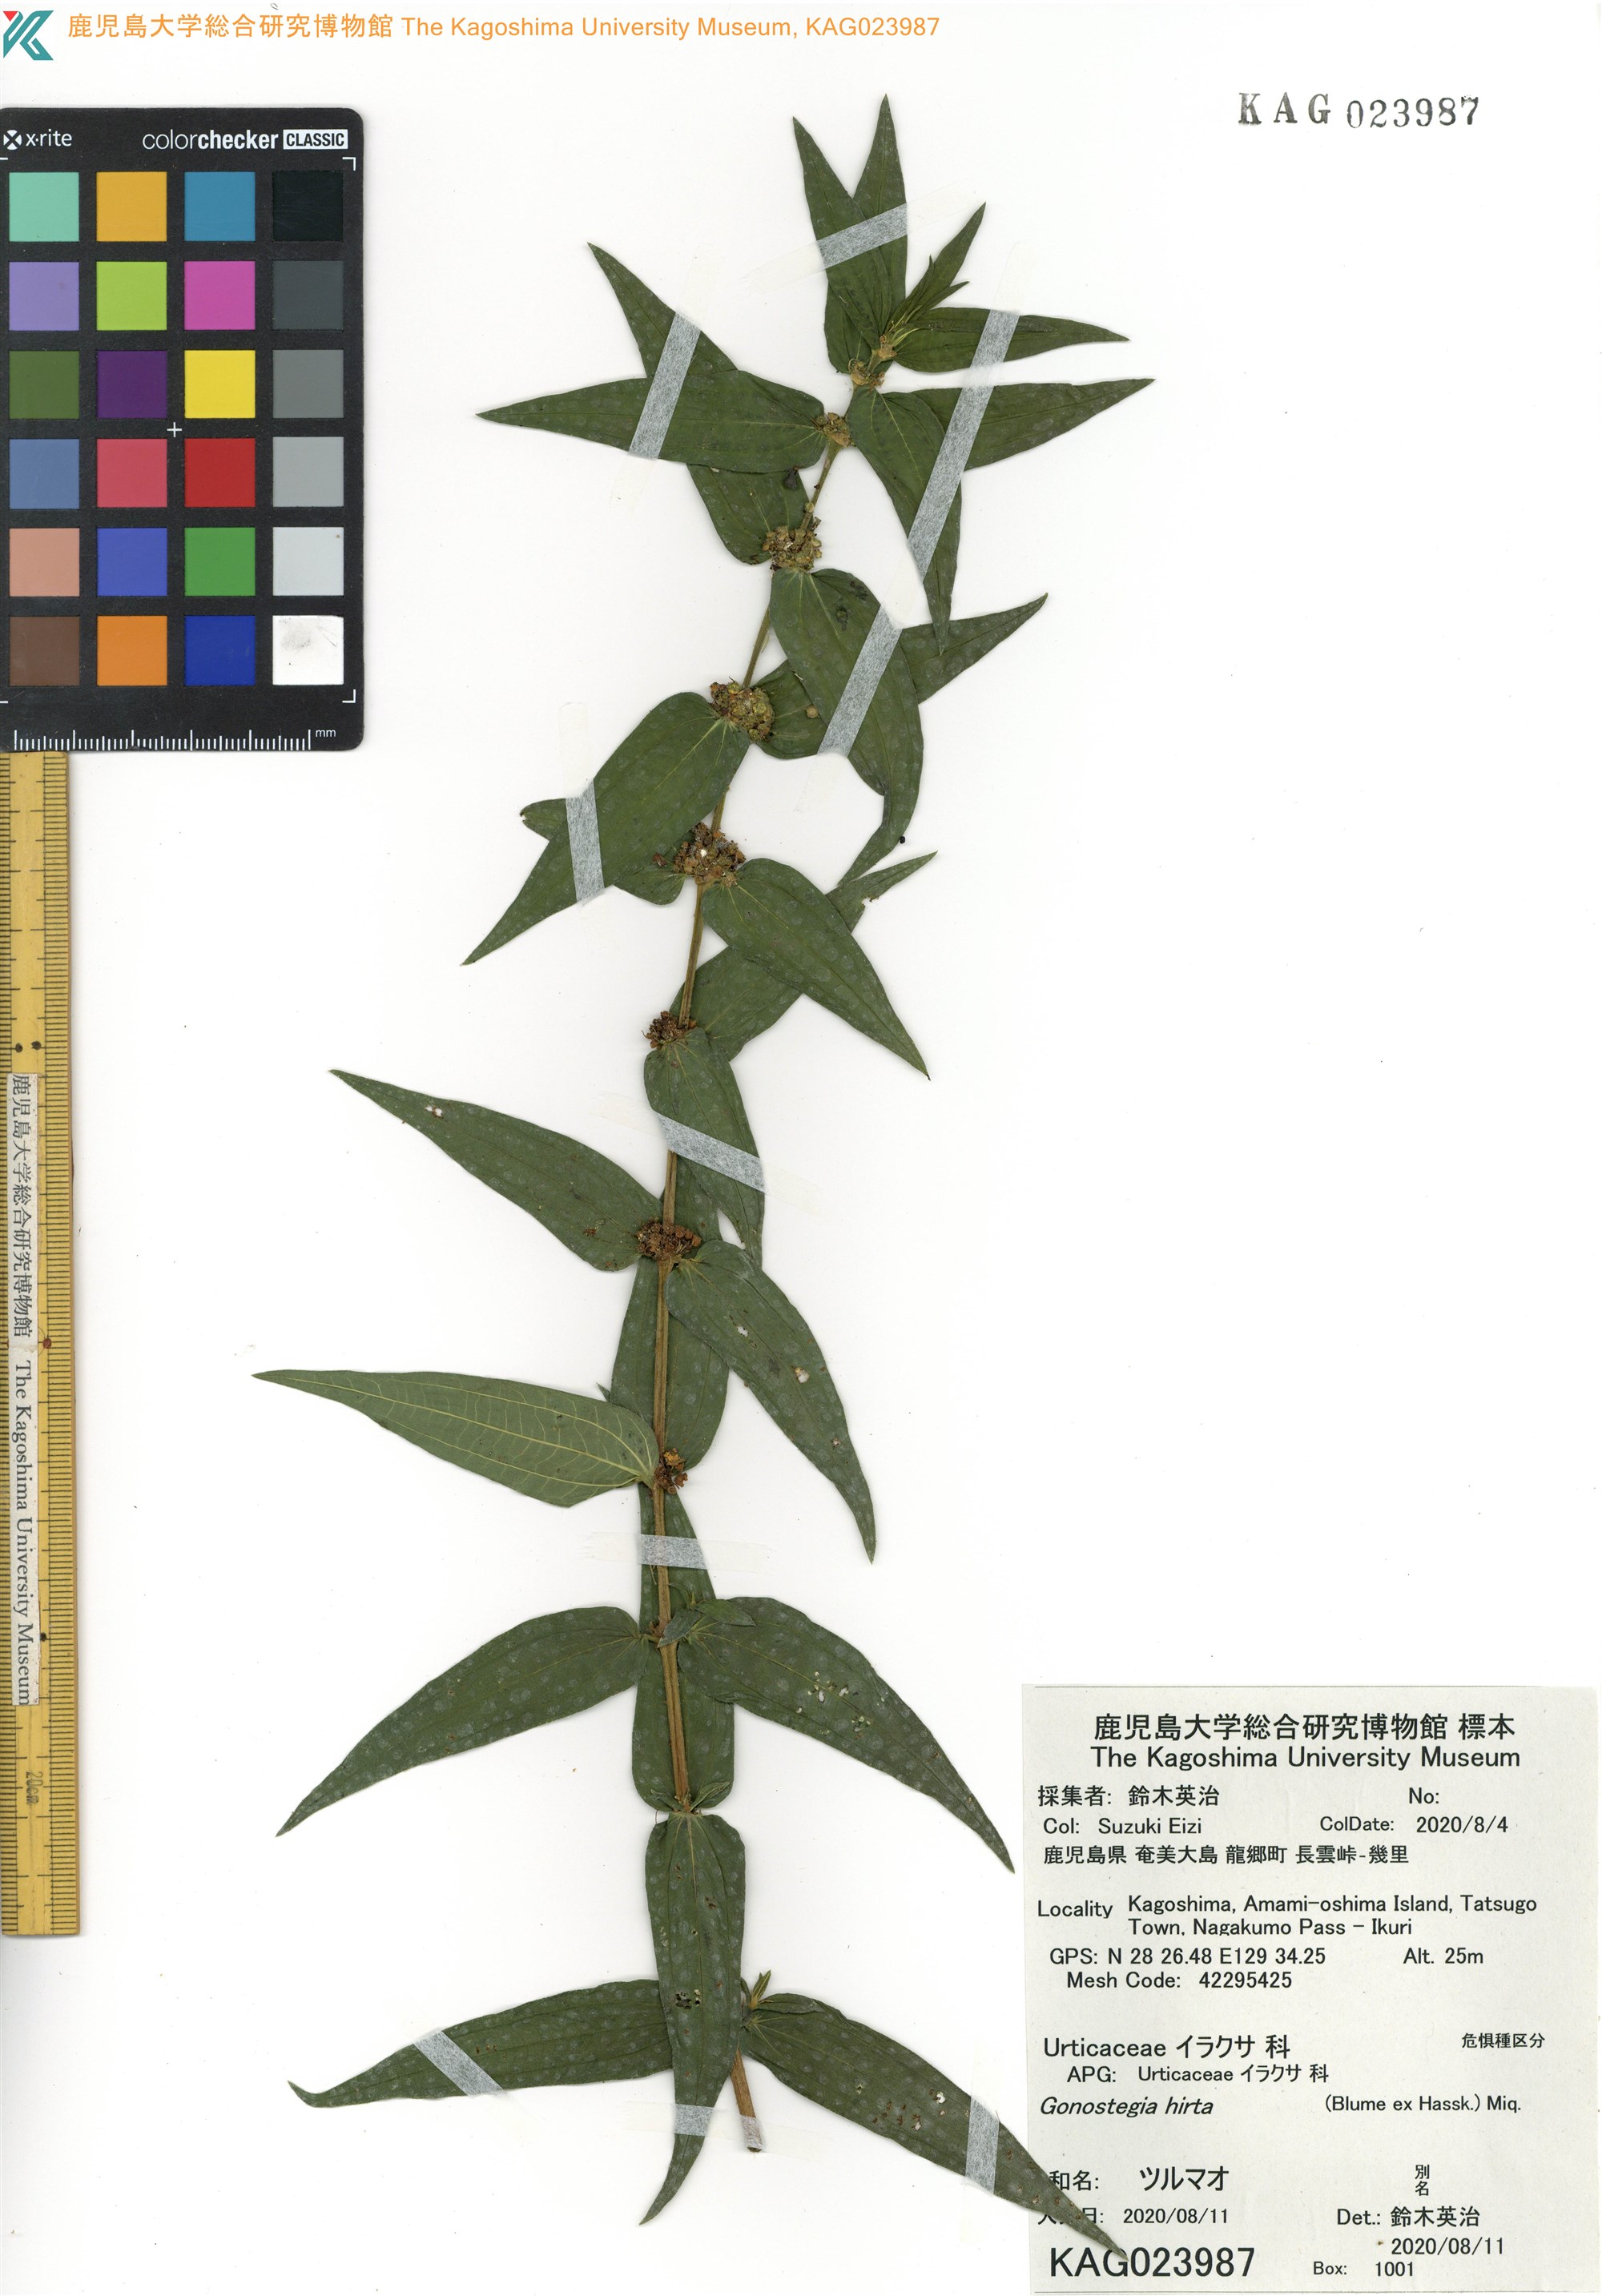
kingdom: Plantae
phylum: Tracheophyta
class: Magnoliopsida
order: Rosales
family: Urticaceae
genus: Gonostegia
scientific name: Gonostegia triandra
